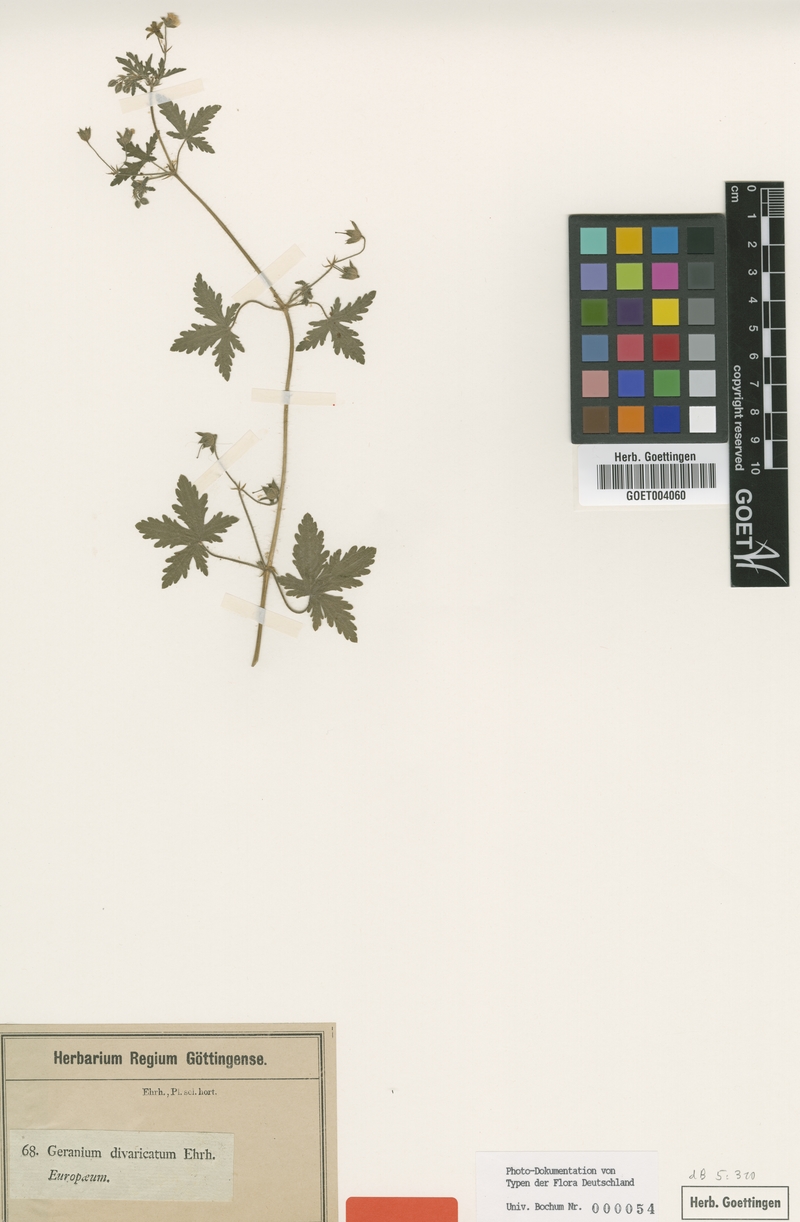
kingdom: Plantae
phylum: Tracheophyta
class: Magnoliopsida
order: Geraniales
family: Geraniaceae
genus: Geranium
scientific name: Geranium divaricatum
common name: Spreading crane's-bill
